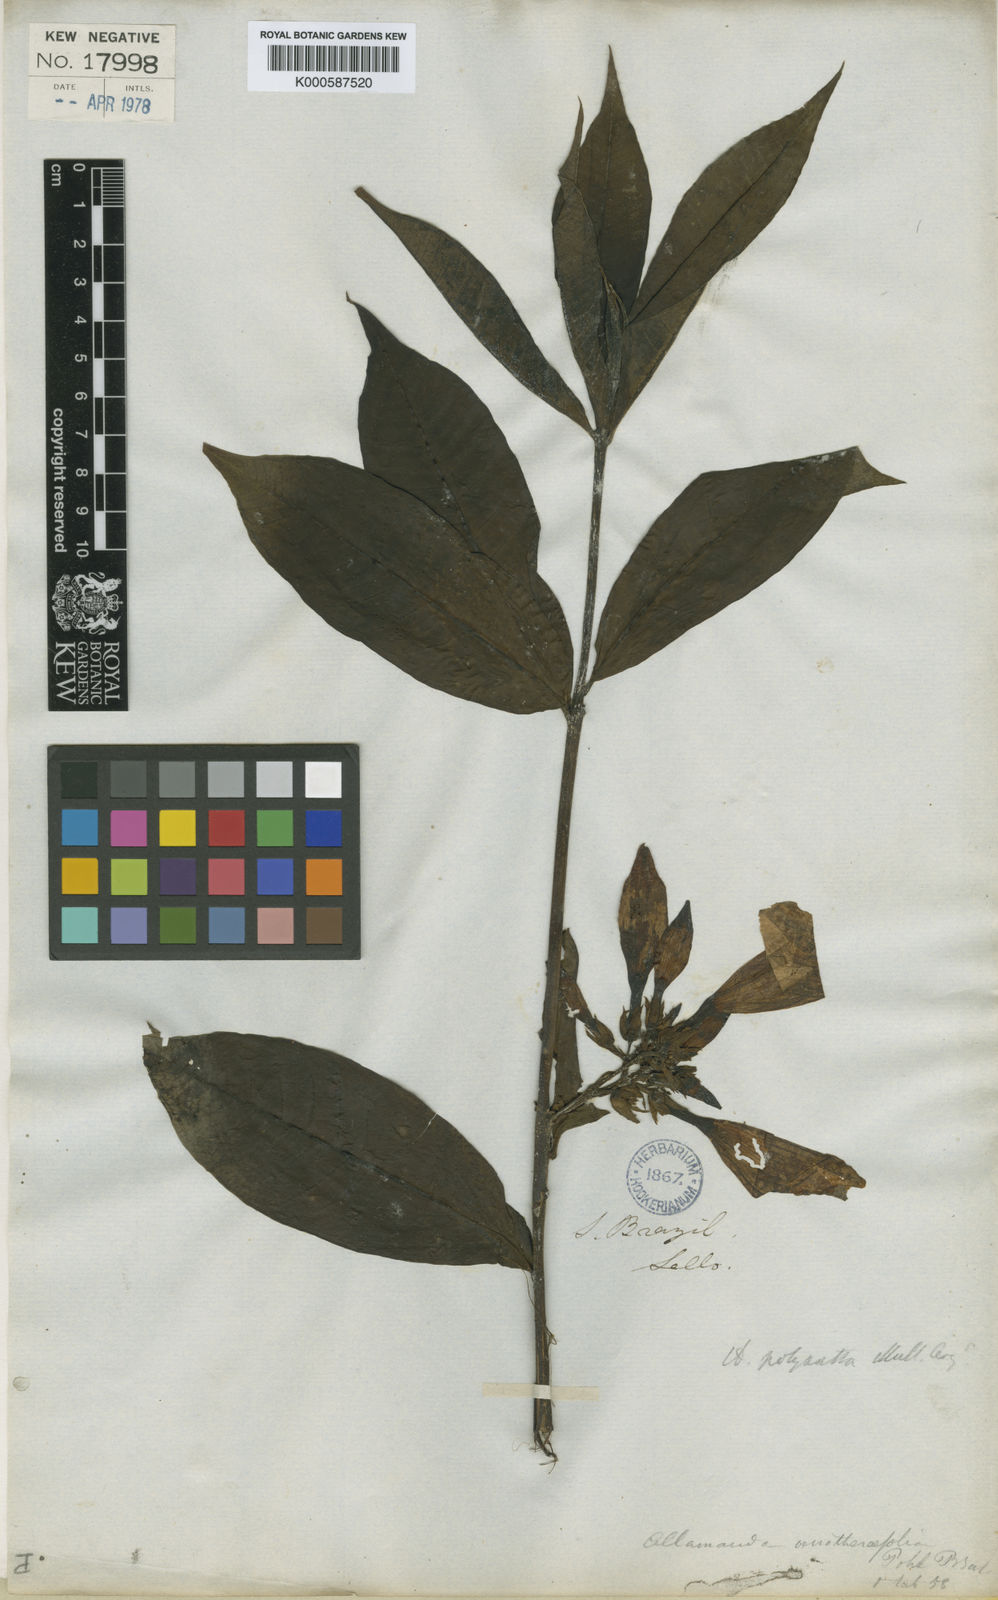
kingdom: Plantae
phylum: Tracheophyta
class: Magnoliopsida
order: Gentianales
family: Apocynaceae
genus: Allamanda
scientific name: Allamanda
